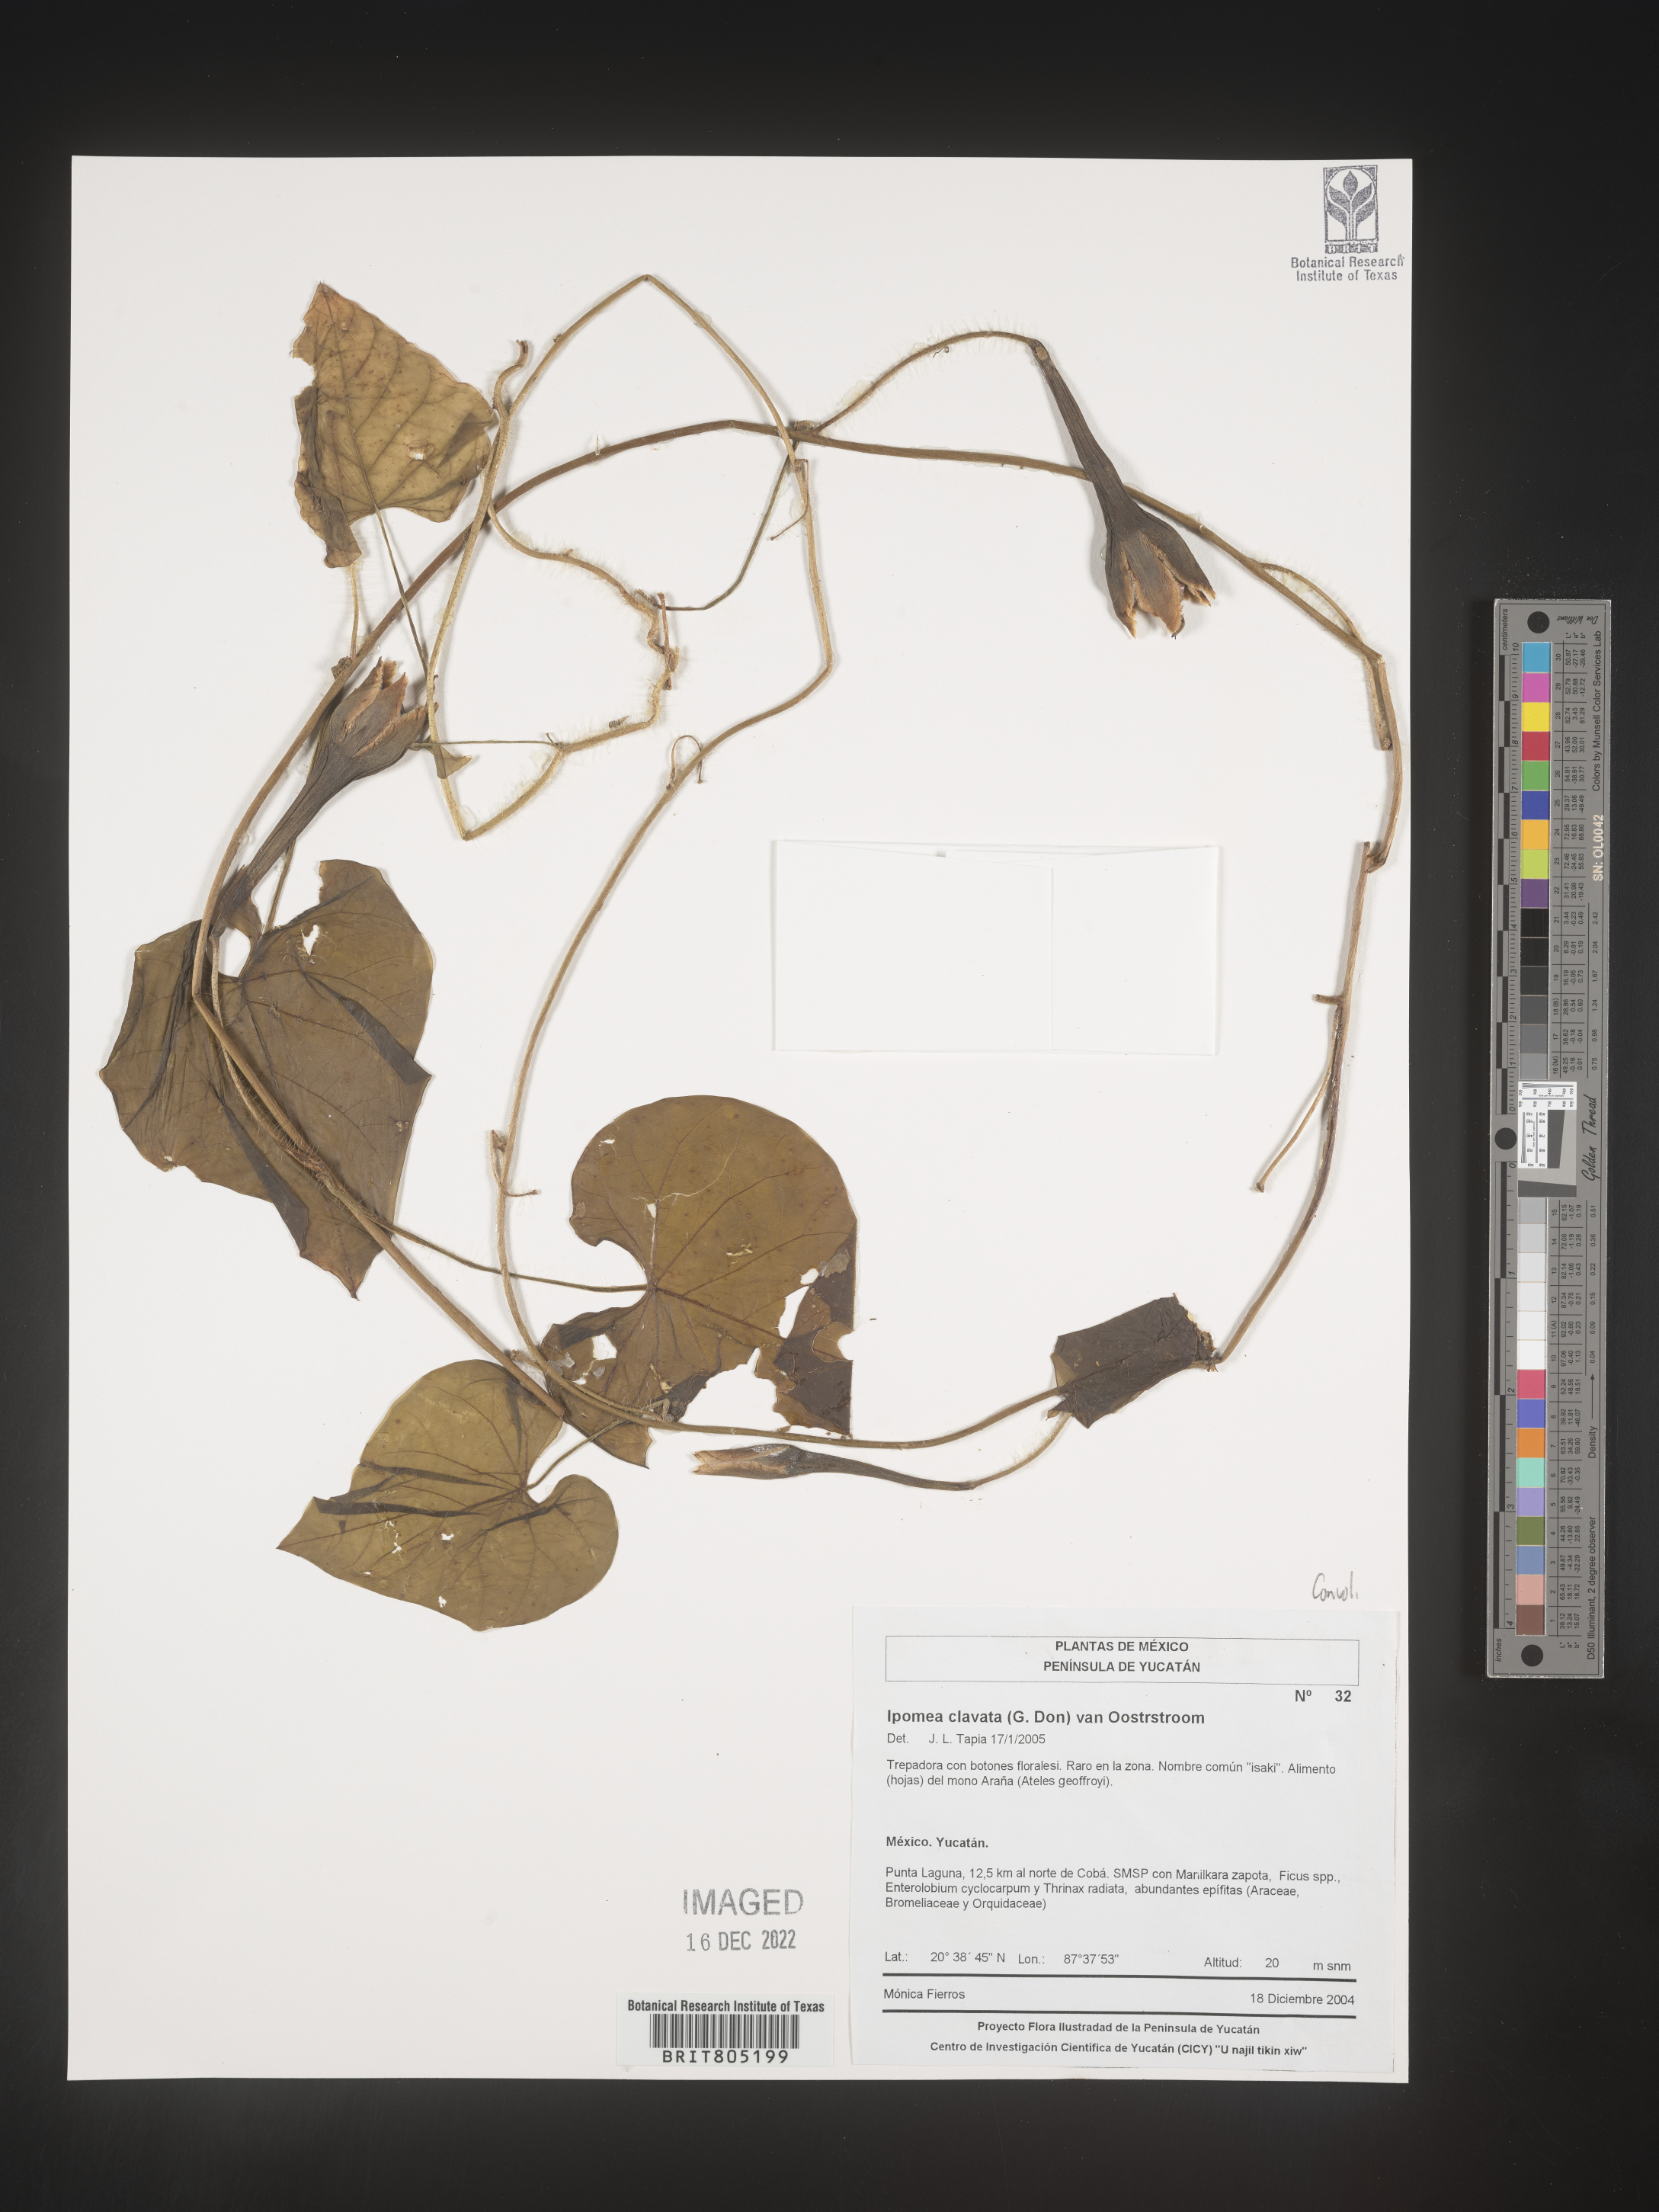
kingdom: Plantae
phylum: Tracheophyta
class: Magnoliopsida
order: Solanales
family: Convolvulaceae
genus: Ipomoea
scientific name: Ipomoea
